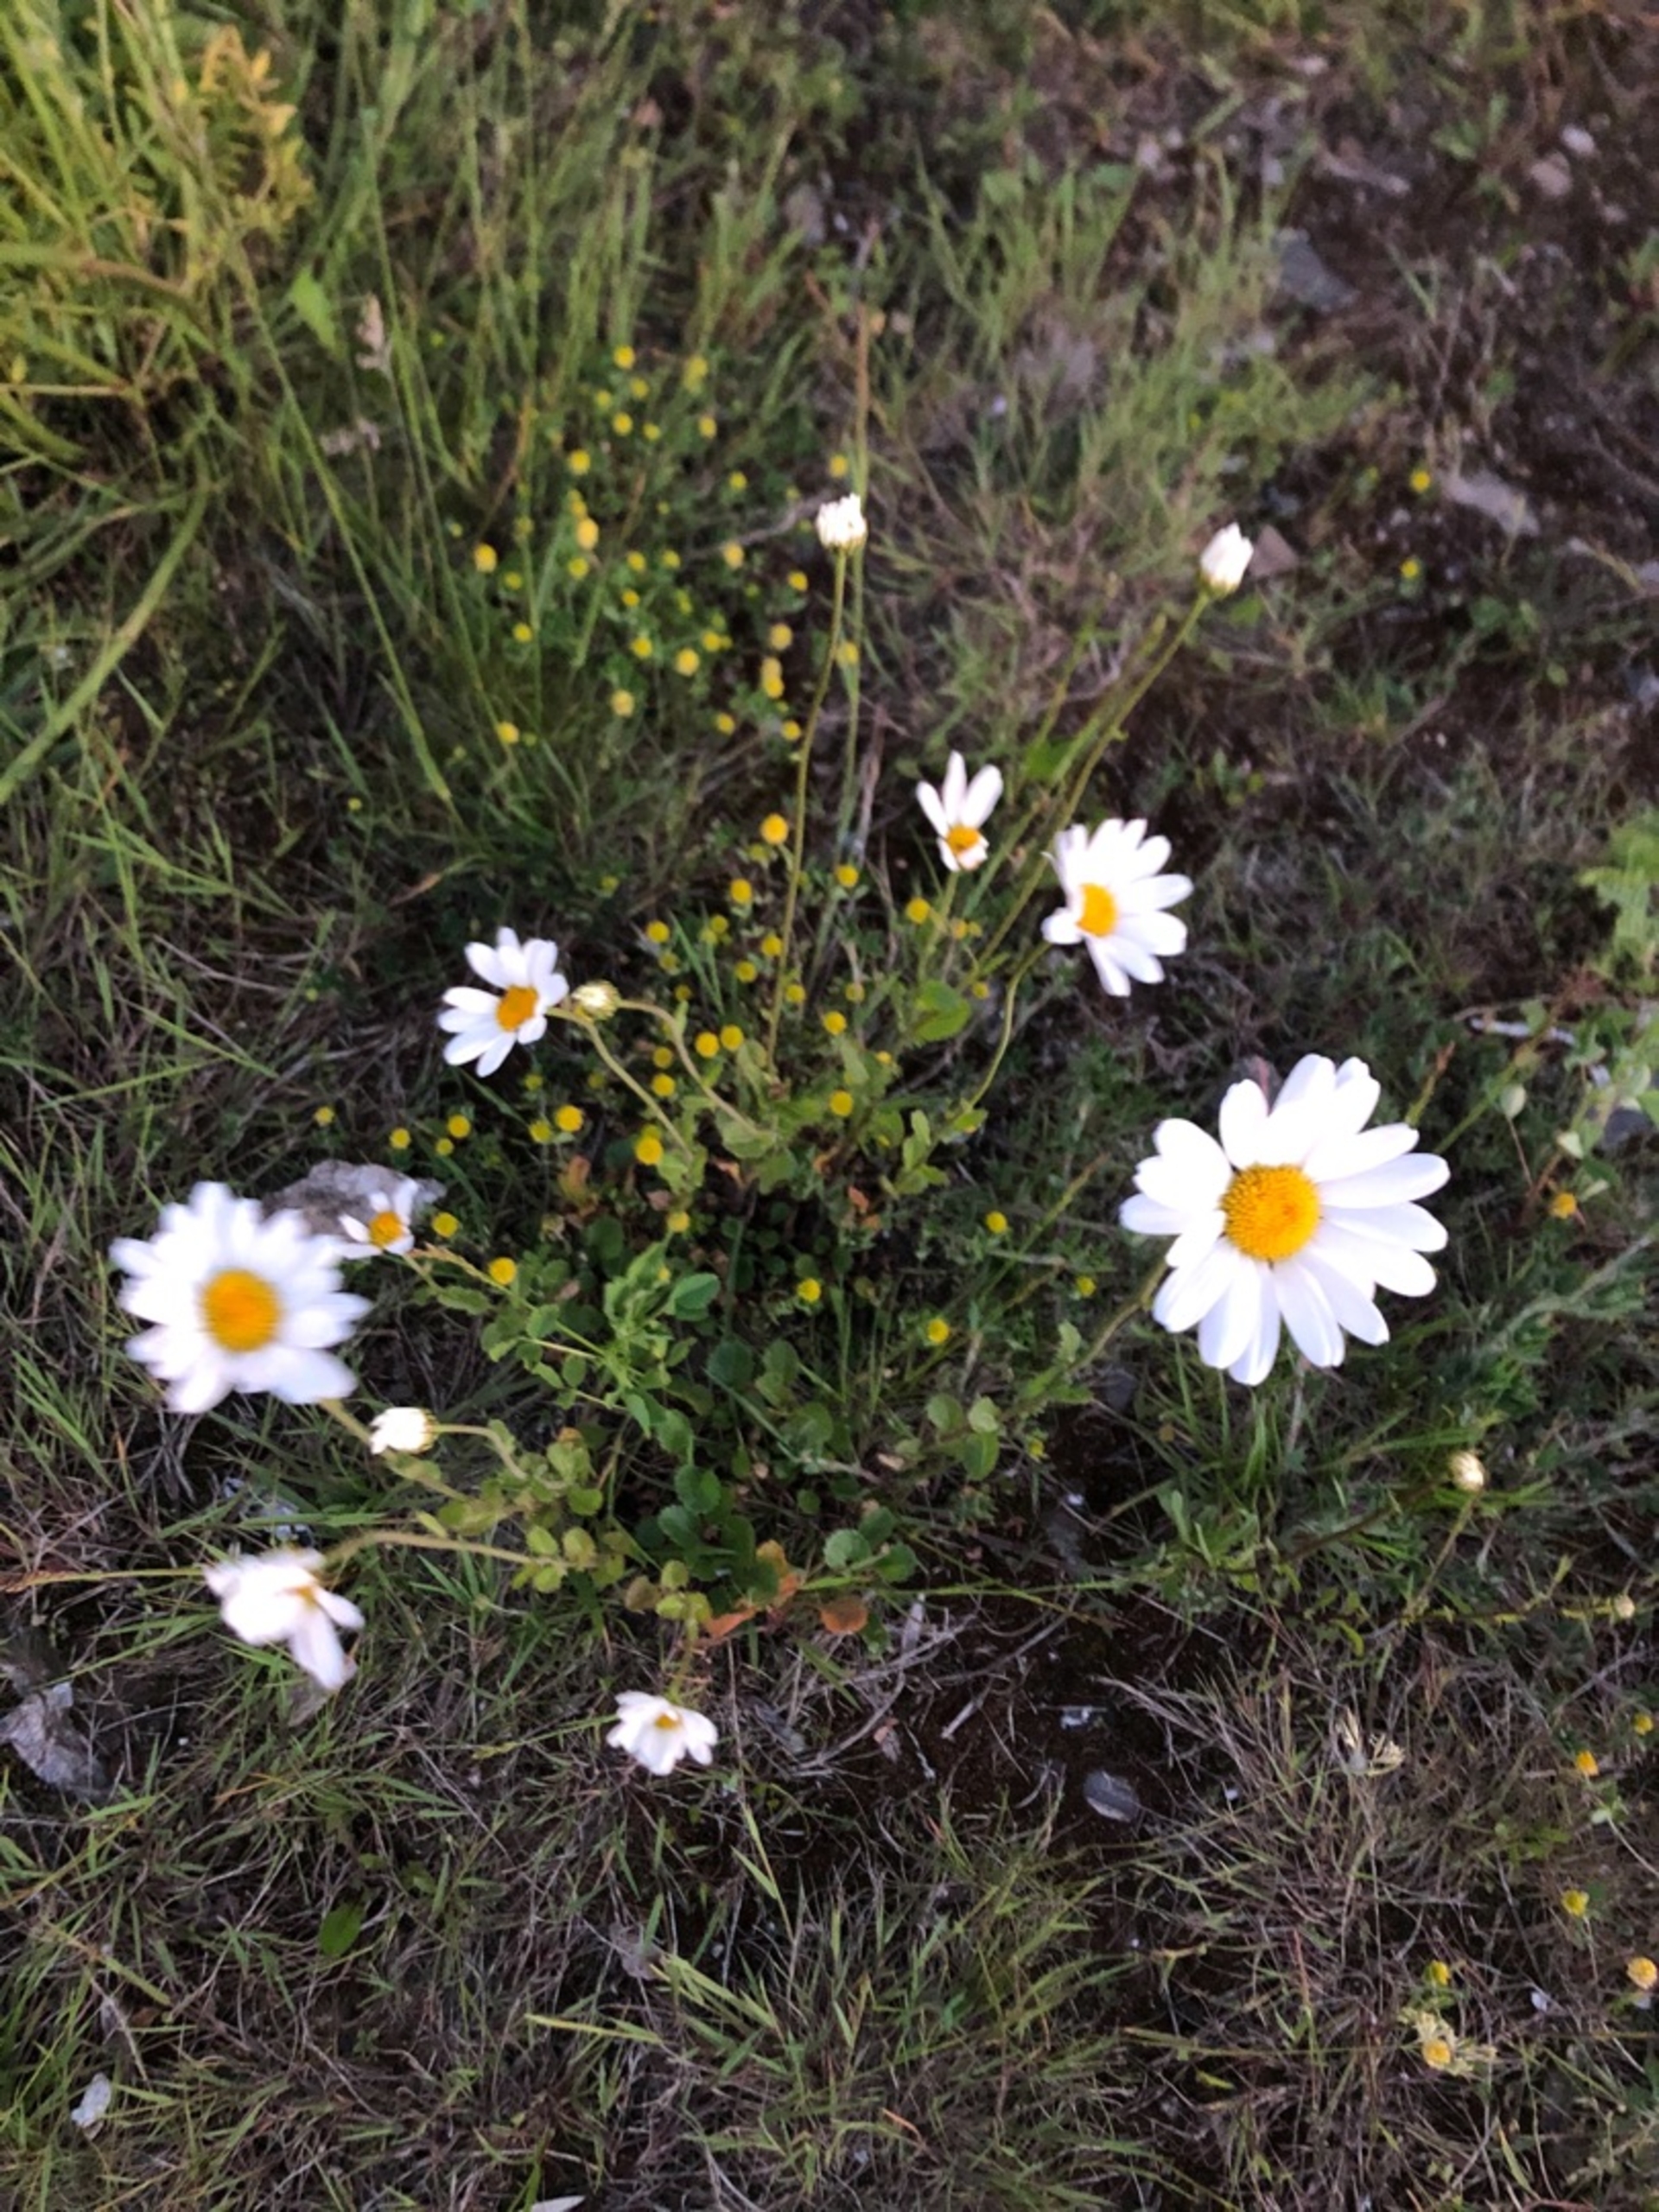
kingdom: Plantae
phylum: Tracheophyta
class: Magnoliopsida
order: Asterales
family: Asteraceae
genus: Leucanthemum
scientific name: Leucanthemum vulgare
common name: Hvid okseøje
